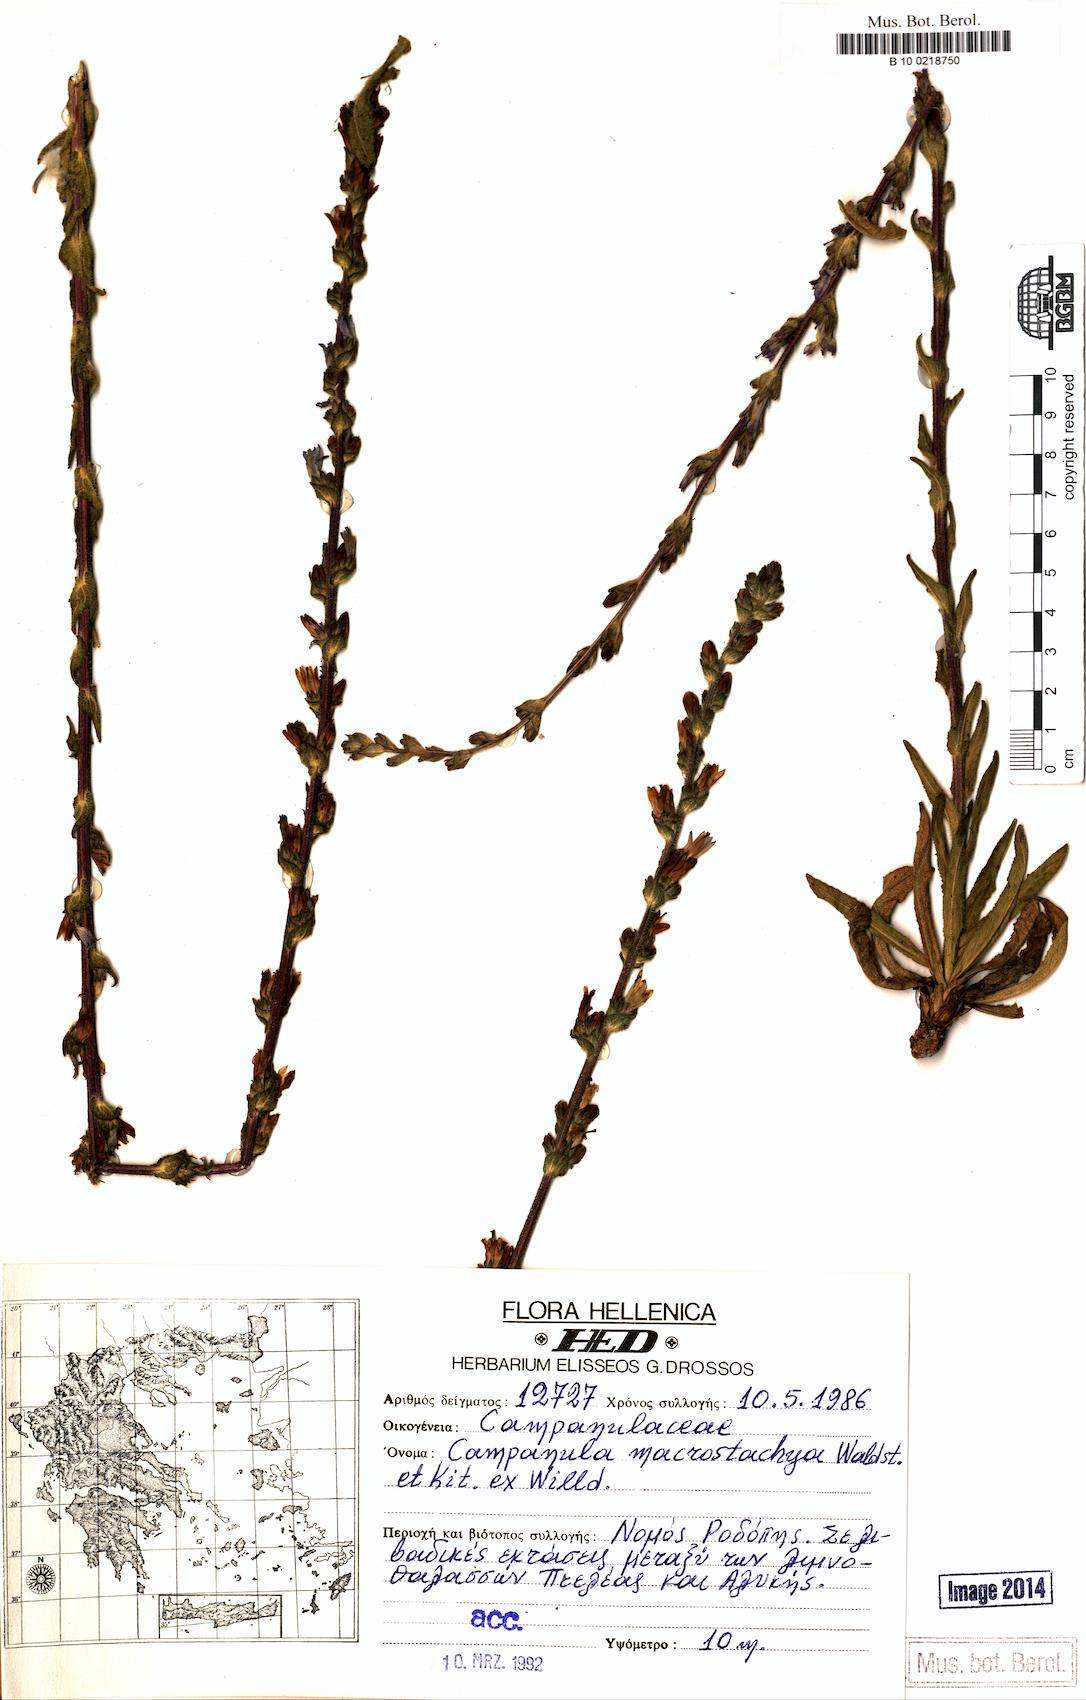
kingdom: Plantae
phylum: Tracheophyta
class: Magnoliopsida
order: Asterales
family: Campanulaceae
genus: Campanula
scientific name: Campanula macrostachya
